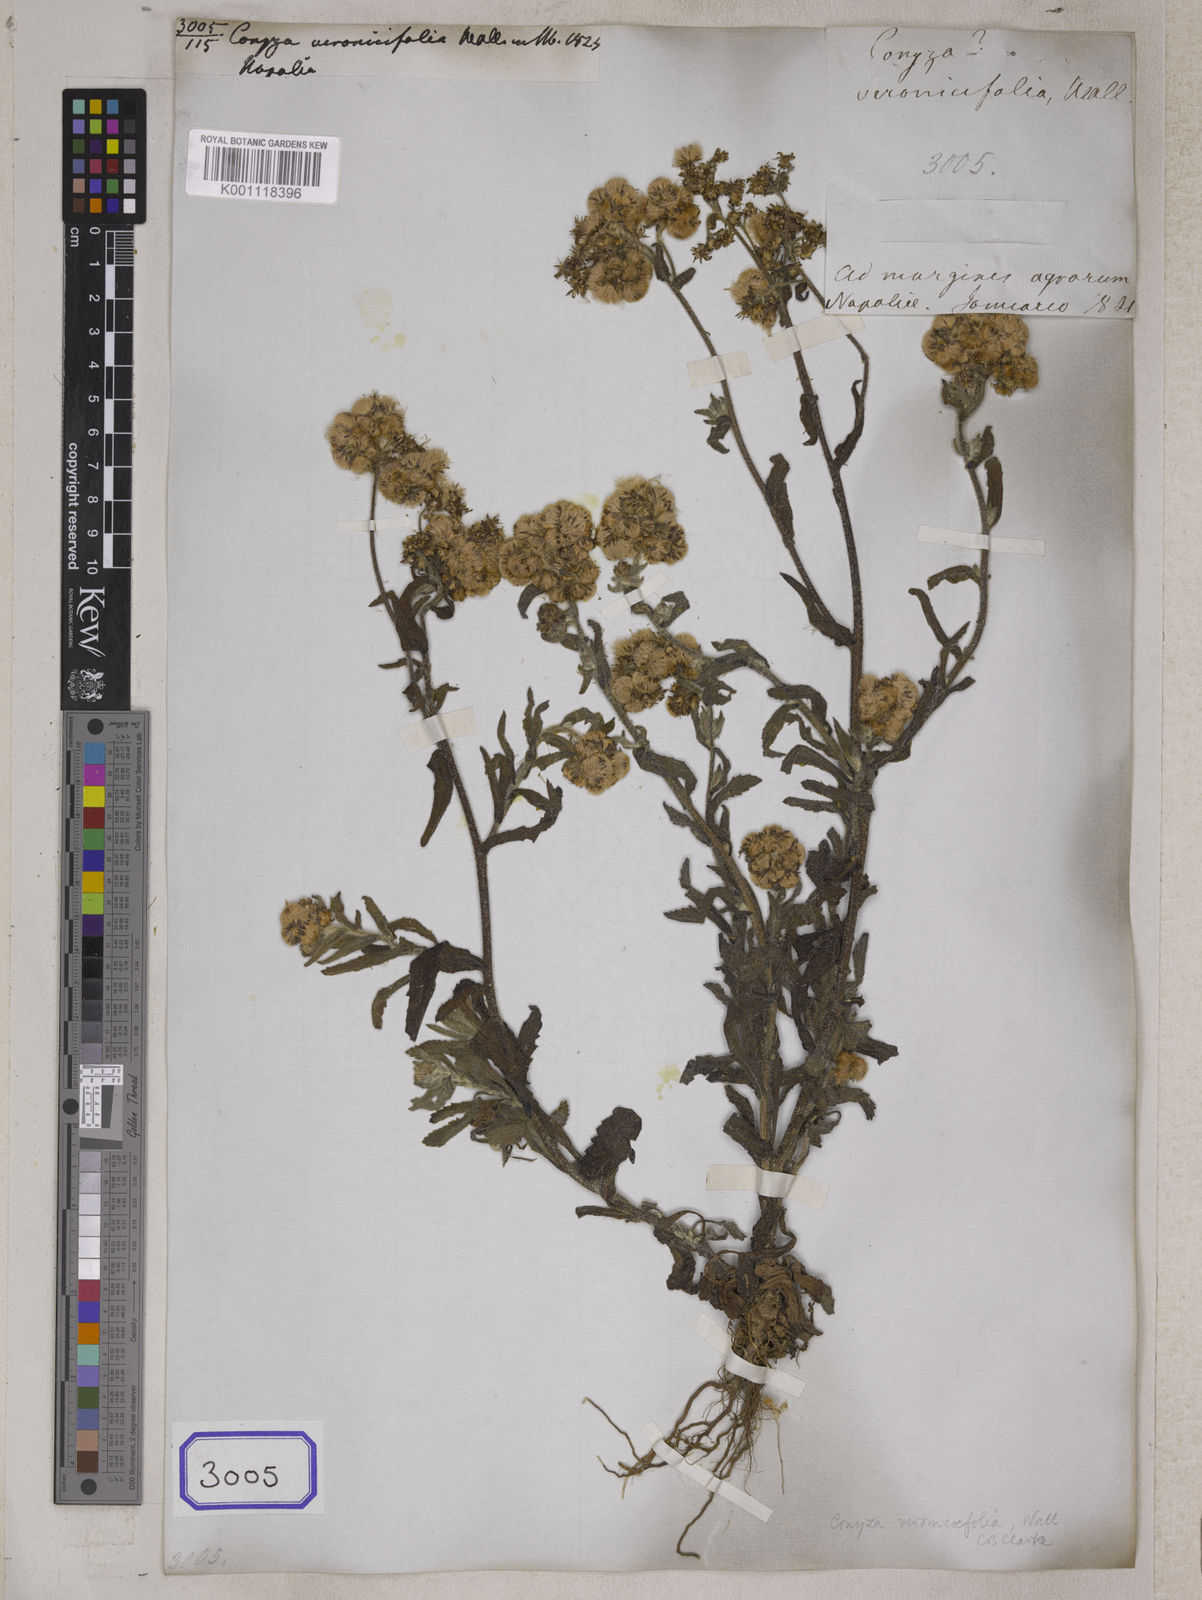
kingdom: Plantae
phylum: Tracheophyta
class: Magnoliopsida
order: Asterales
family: Asteraceae
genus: Eschenbachia
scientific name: Eschenbachia japonica
